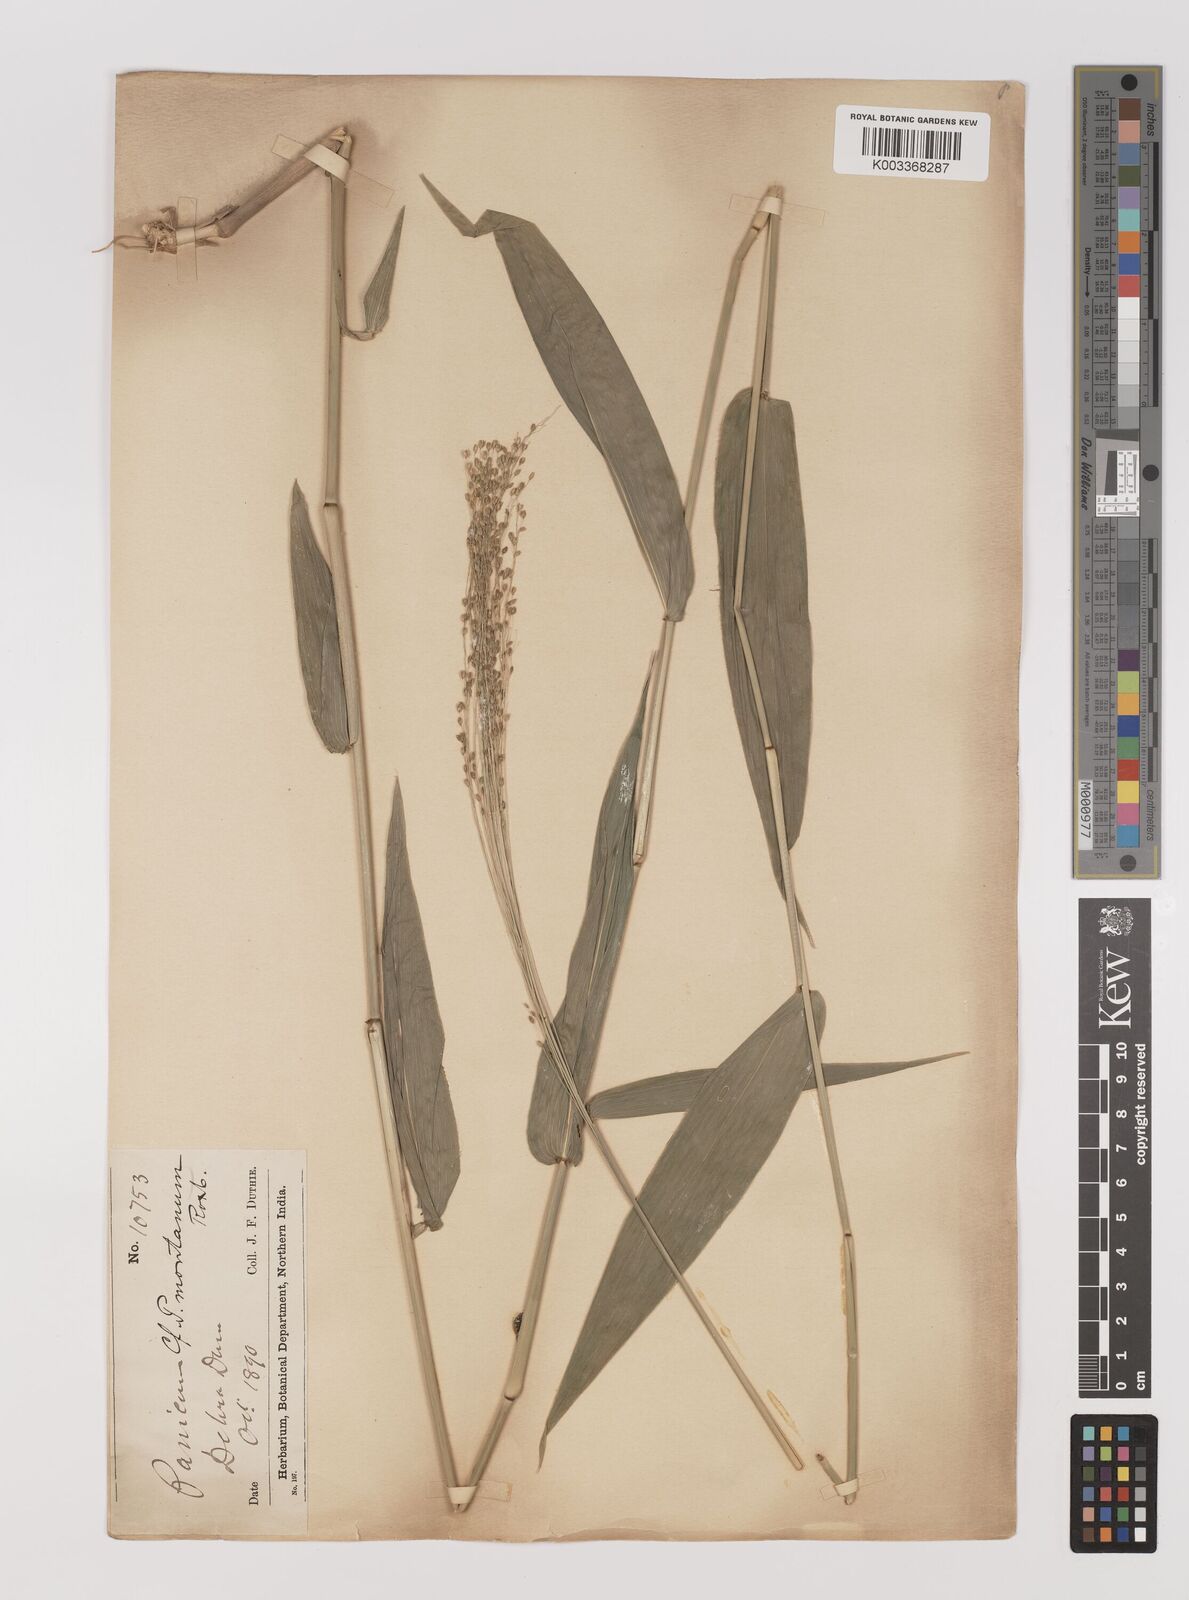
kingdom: Plantae
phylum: Tracheophyta
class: Liliopsida
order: Poales
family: Poaceae
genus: Panicum
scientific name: Panicum notatum
